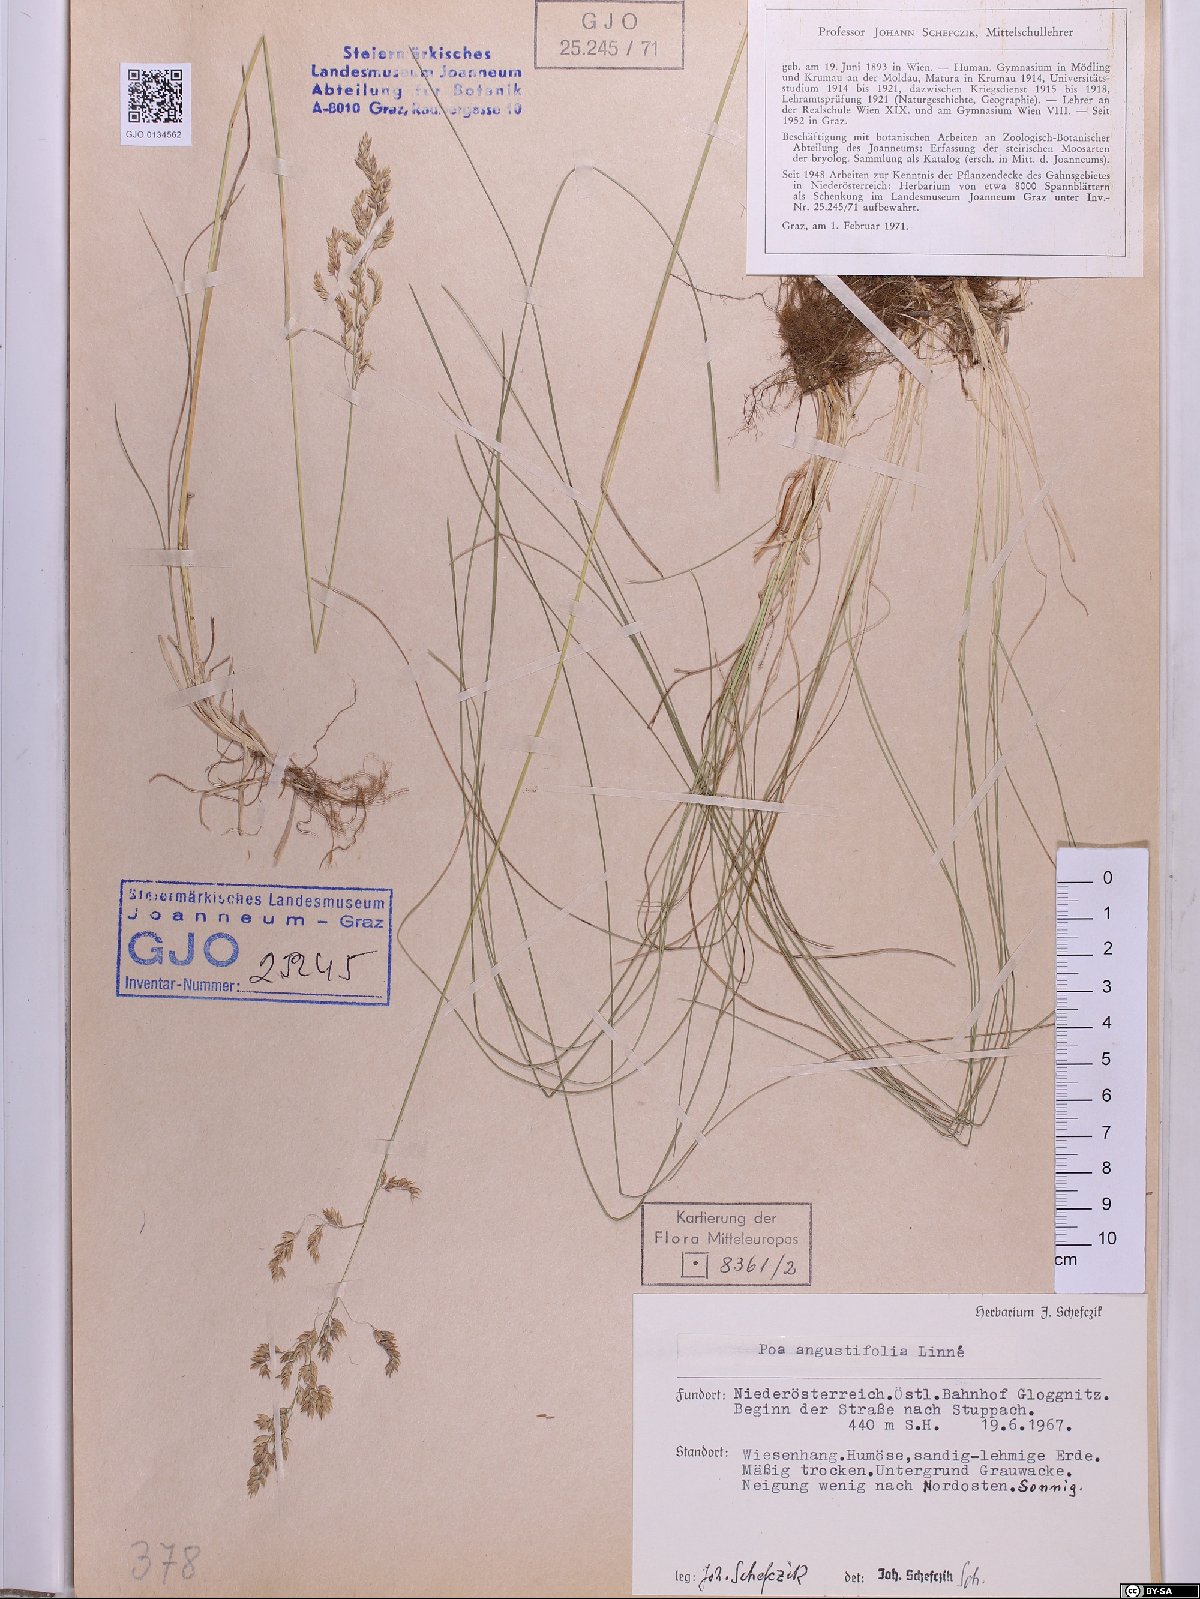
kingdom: Plantae
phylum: Tracheophyta
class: Liliopsida
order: Poales
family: Poaceae
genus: Poa
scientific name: Poa angustifolia
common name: Narrow-leaved meadow-grass
